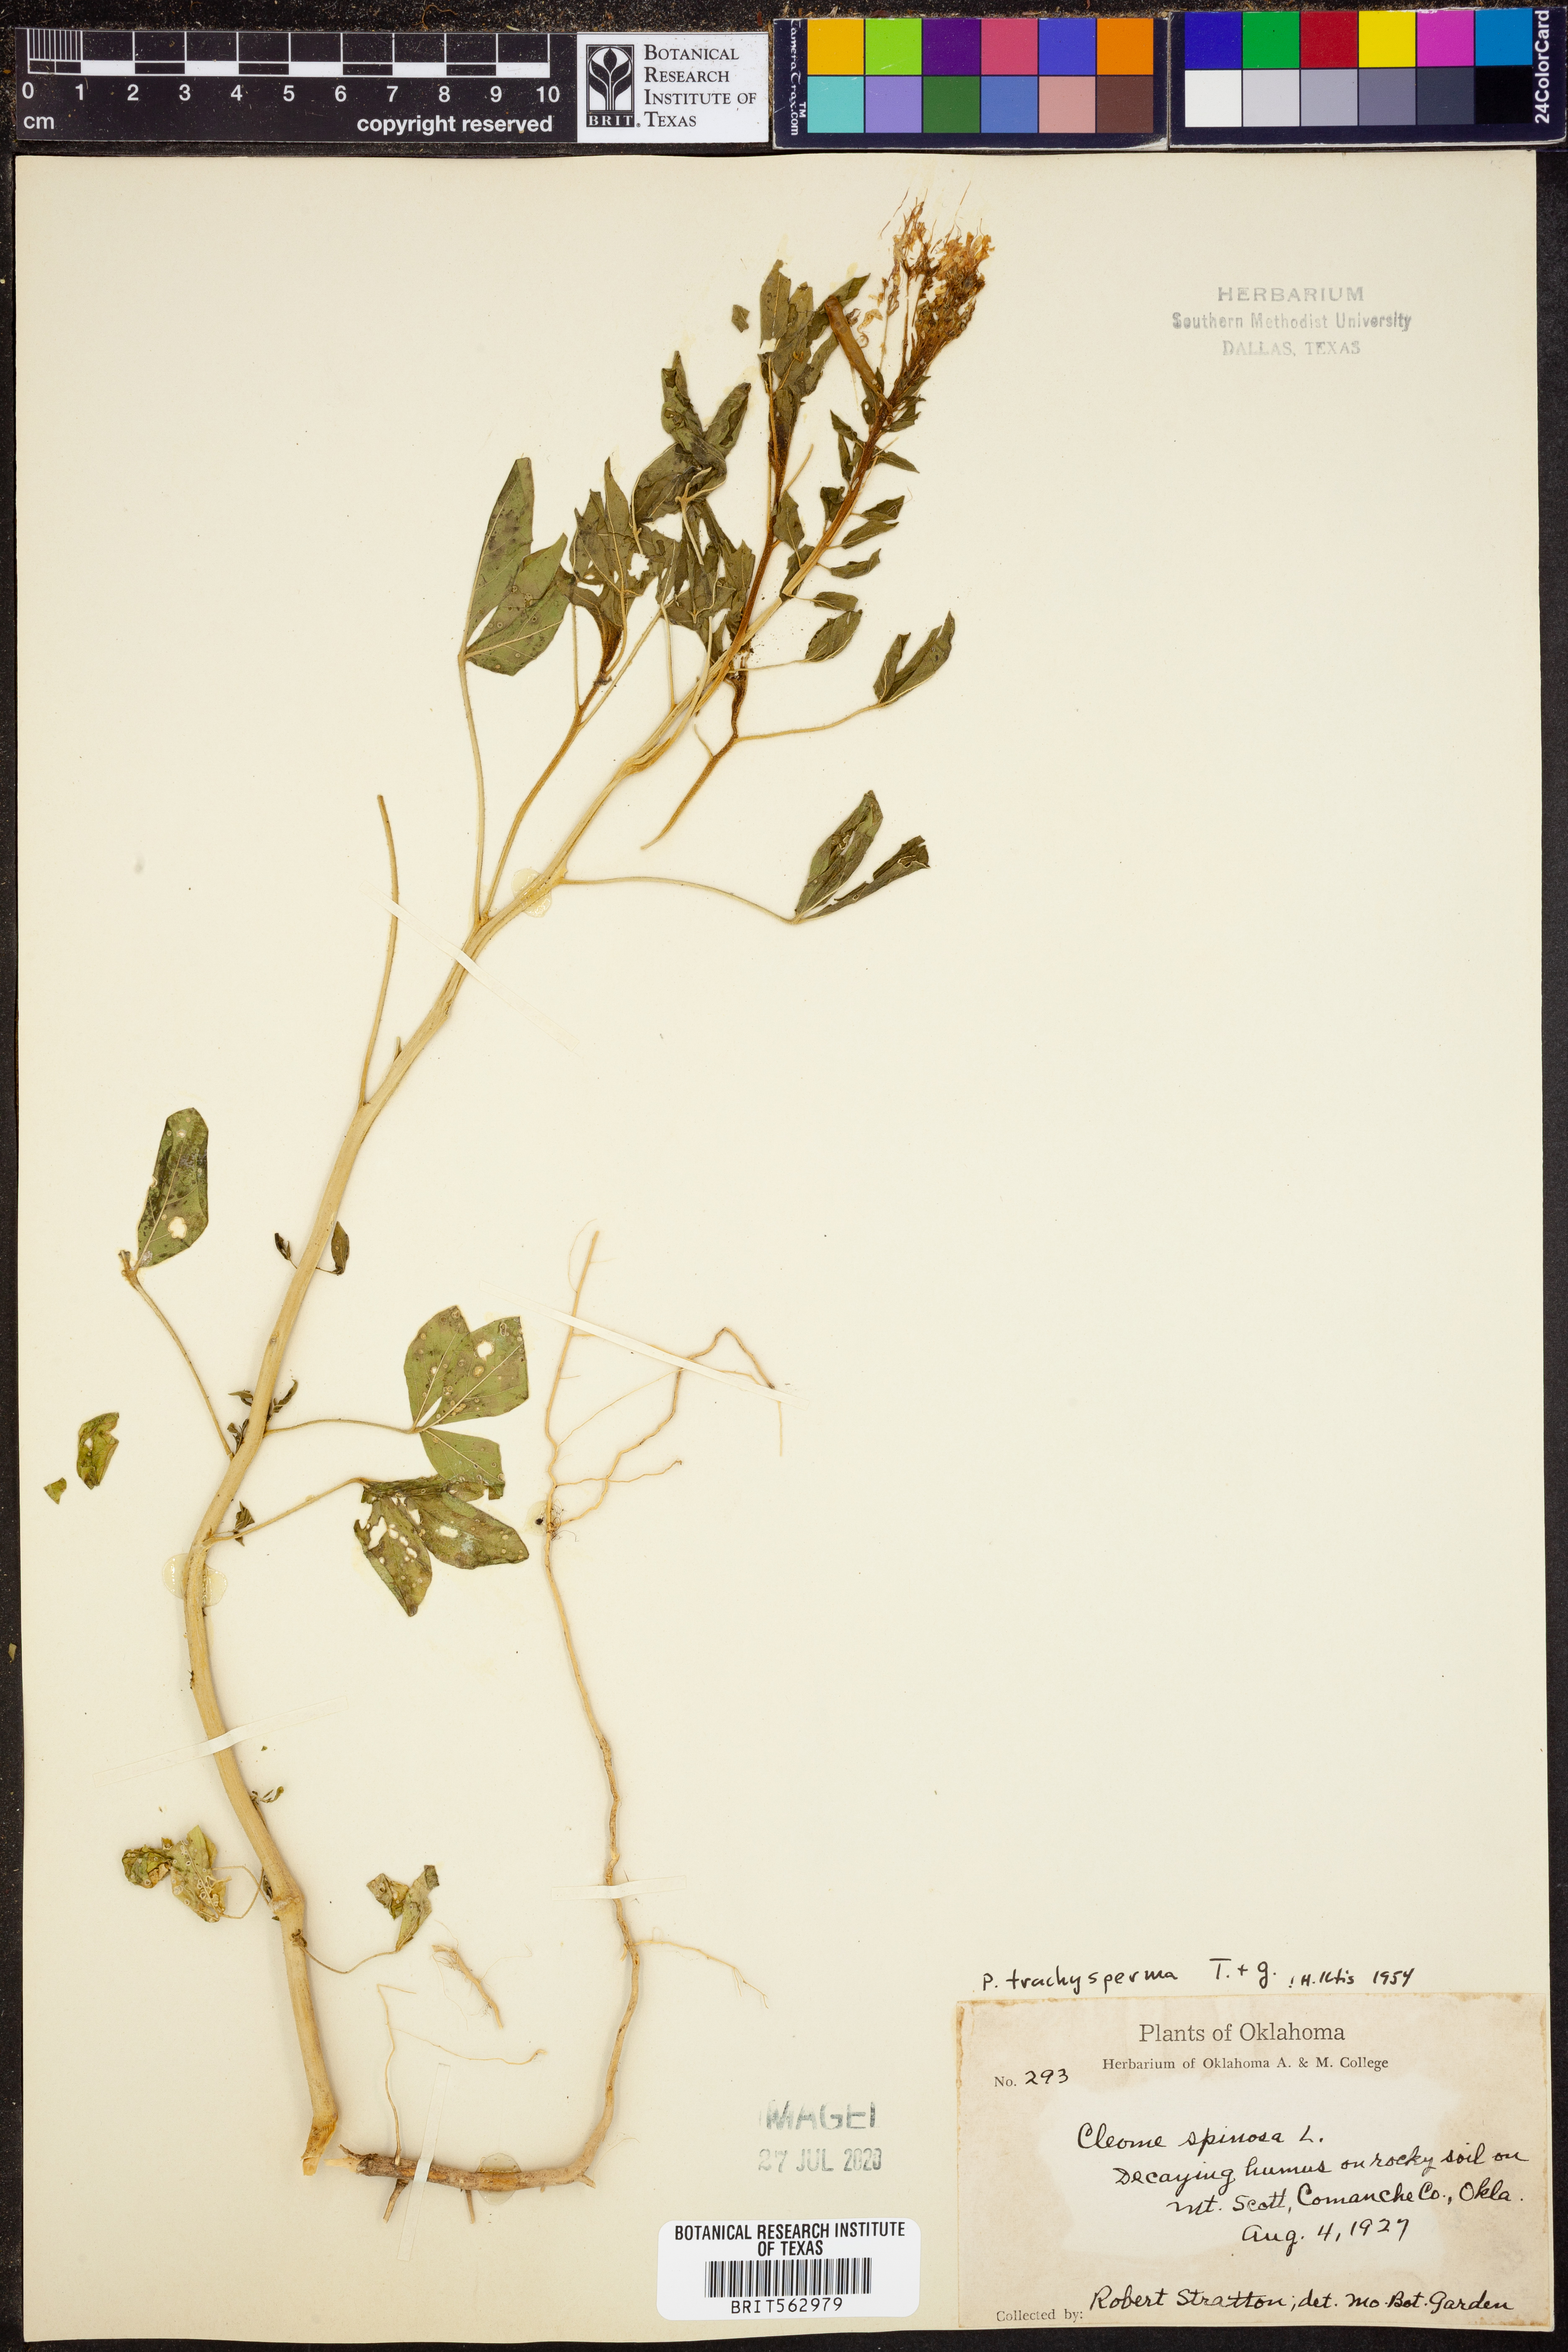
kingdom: Plantae
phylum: Tracheophyta
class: Magnoliopsida
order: Brassicales
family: Cleomaceae
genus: Polanisia
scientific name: Polanisia trachysperma
